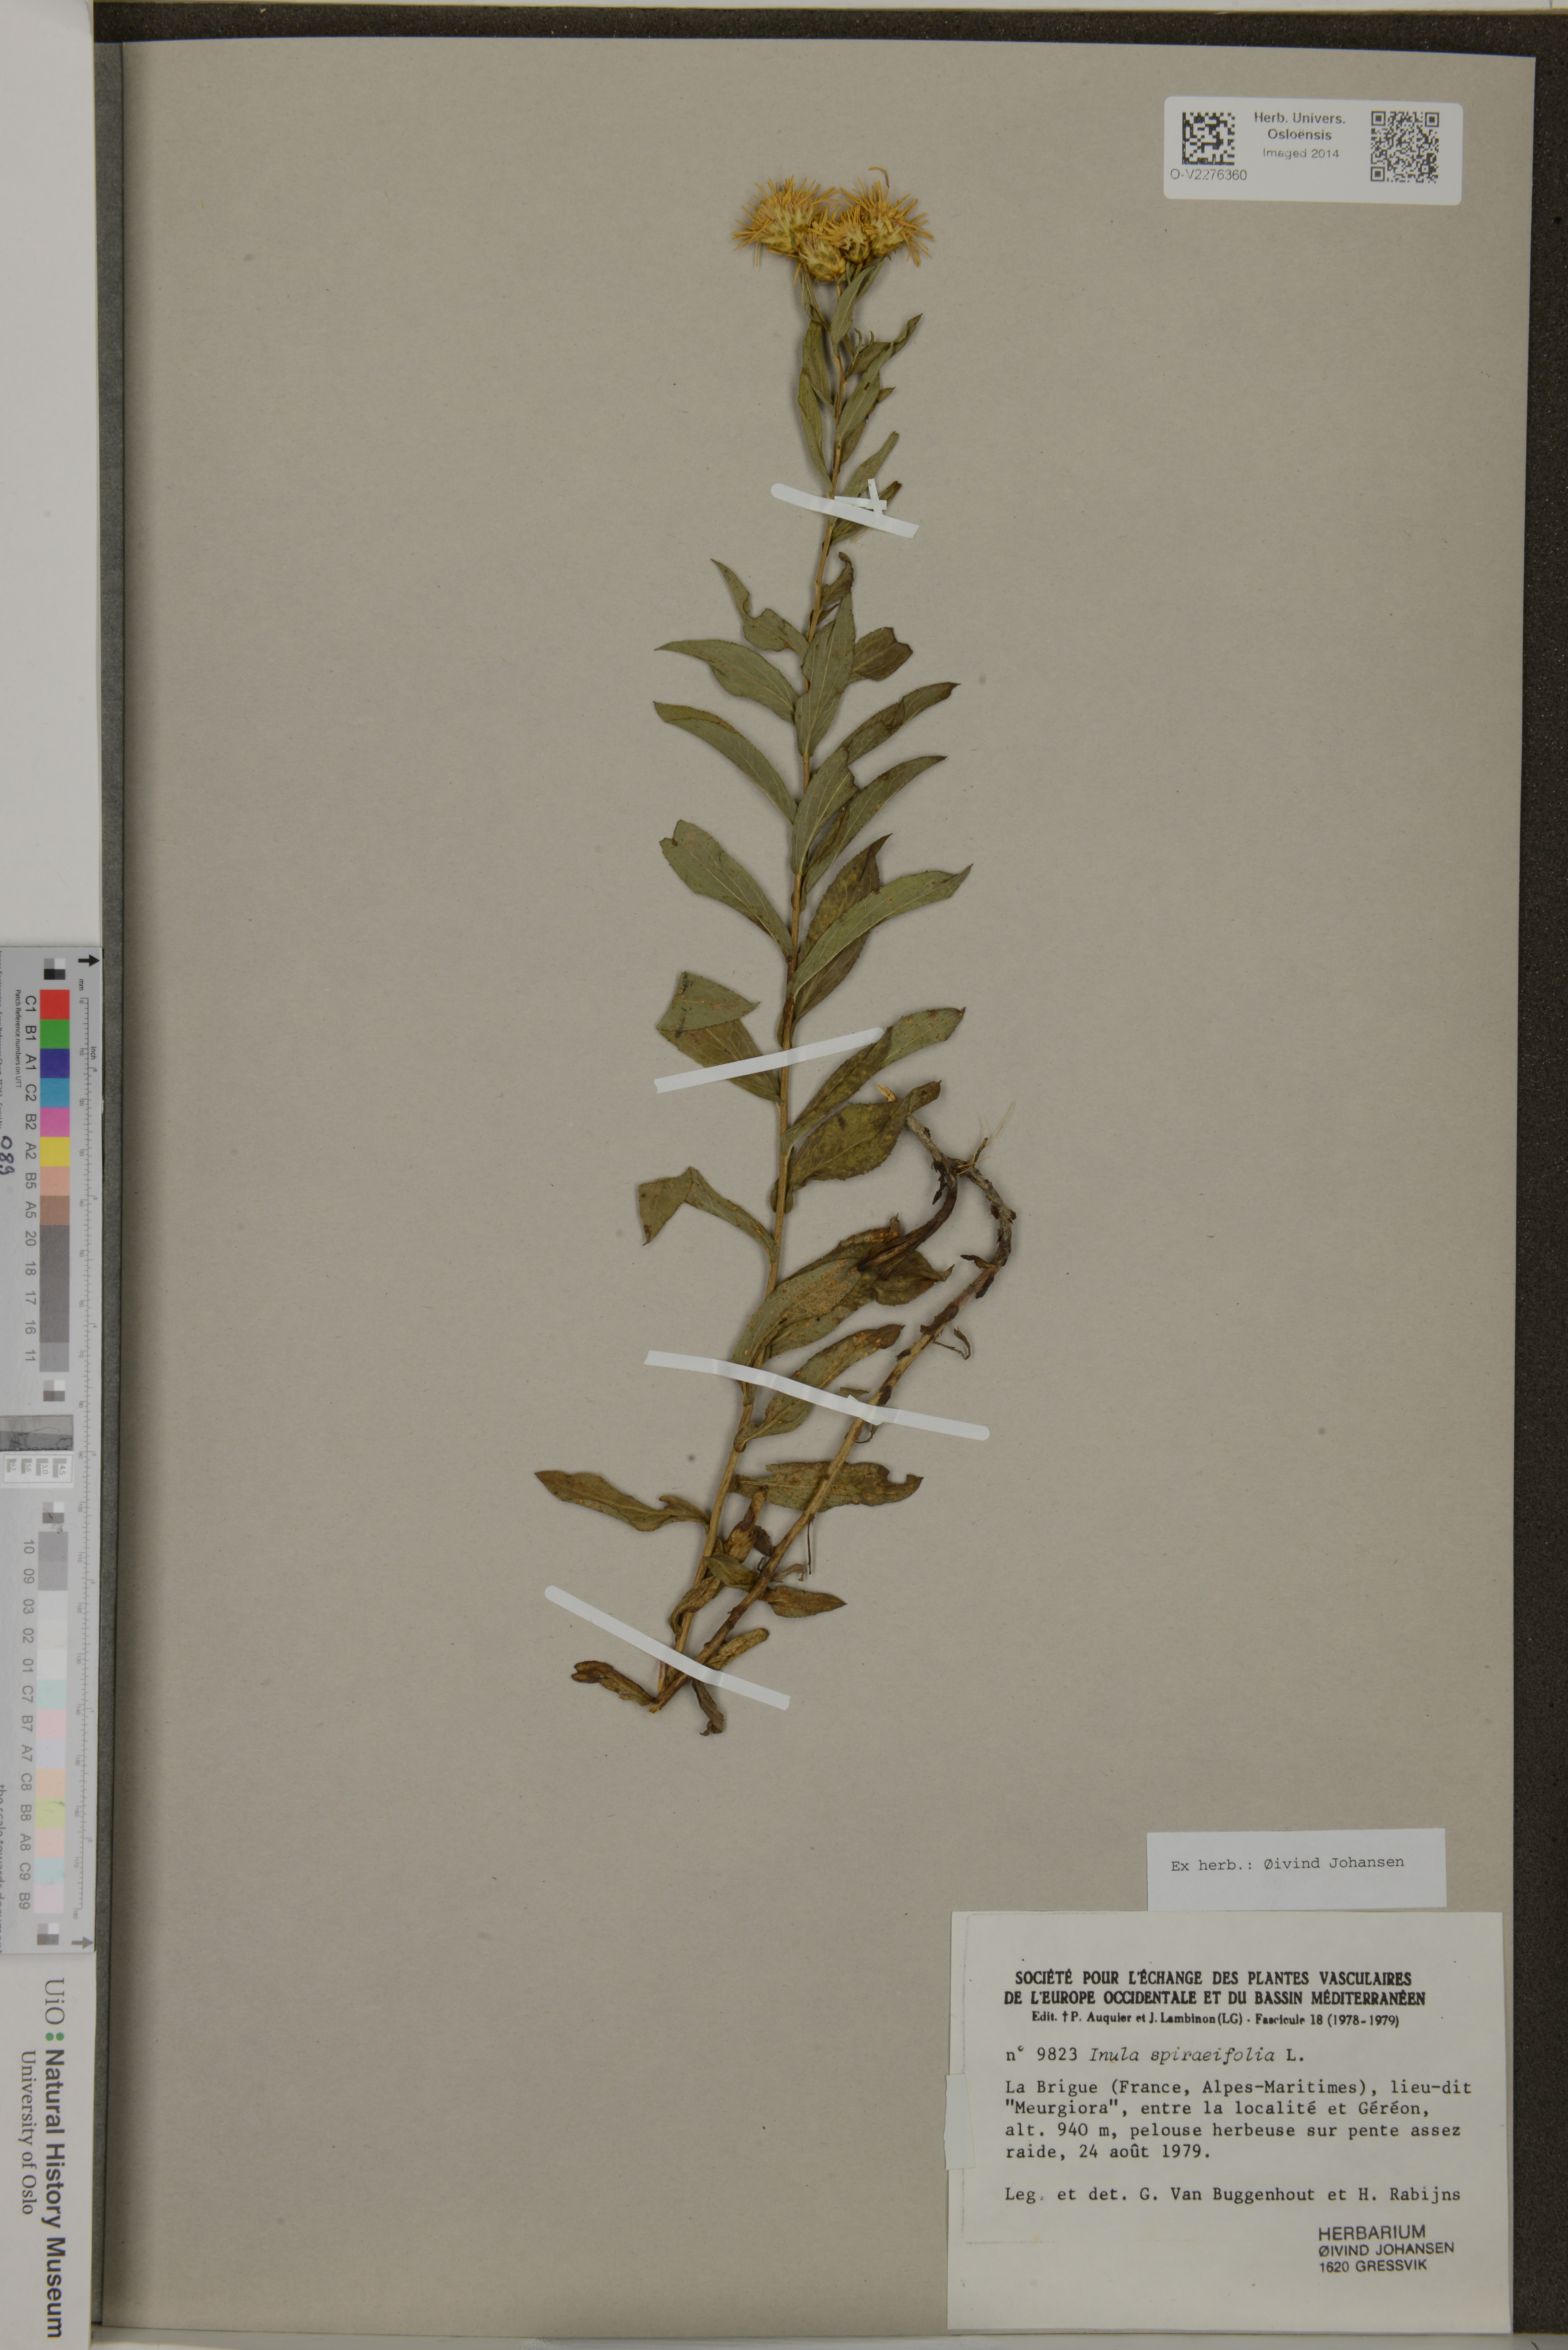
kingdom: Plantae
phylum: Tracheophyta
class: Magnoliopsida
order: Asterales
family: Asteraceae
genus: Inula
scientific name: Inula spiraeifolia
